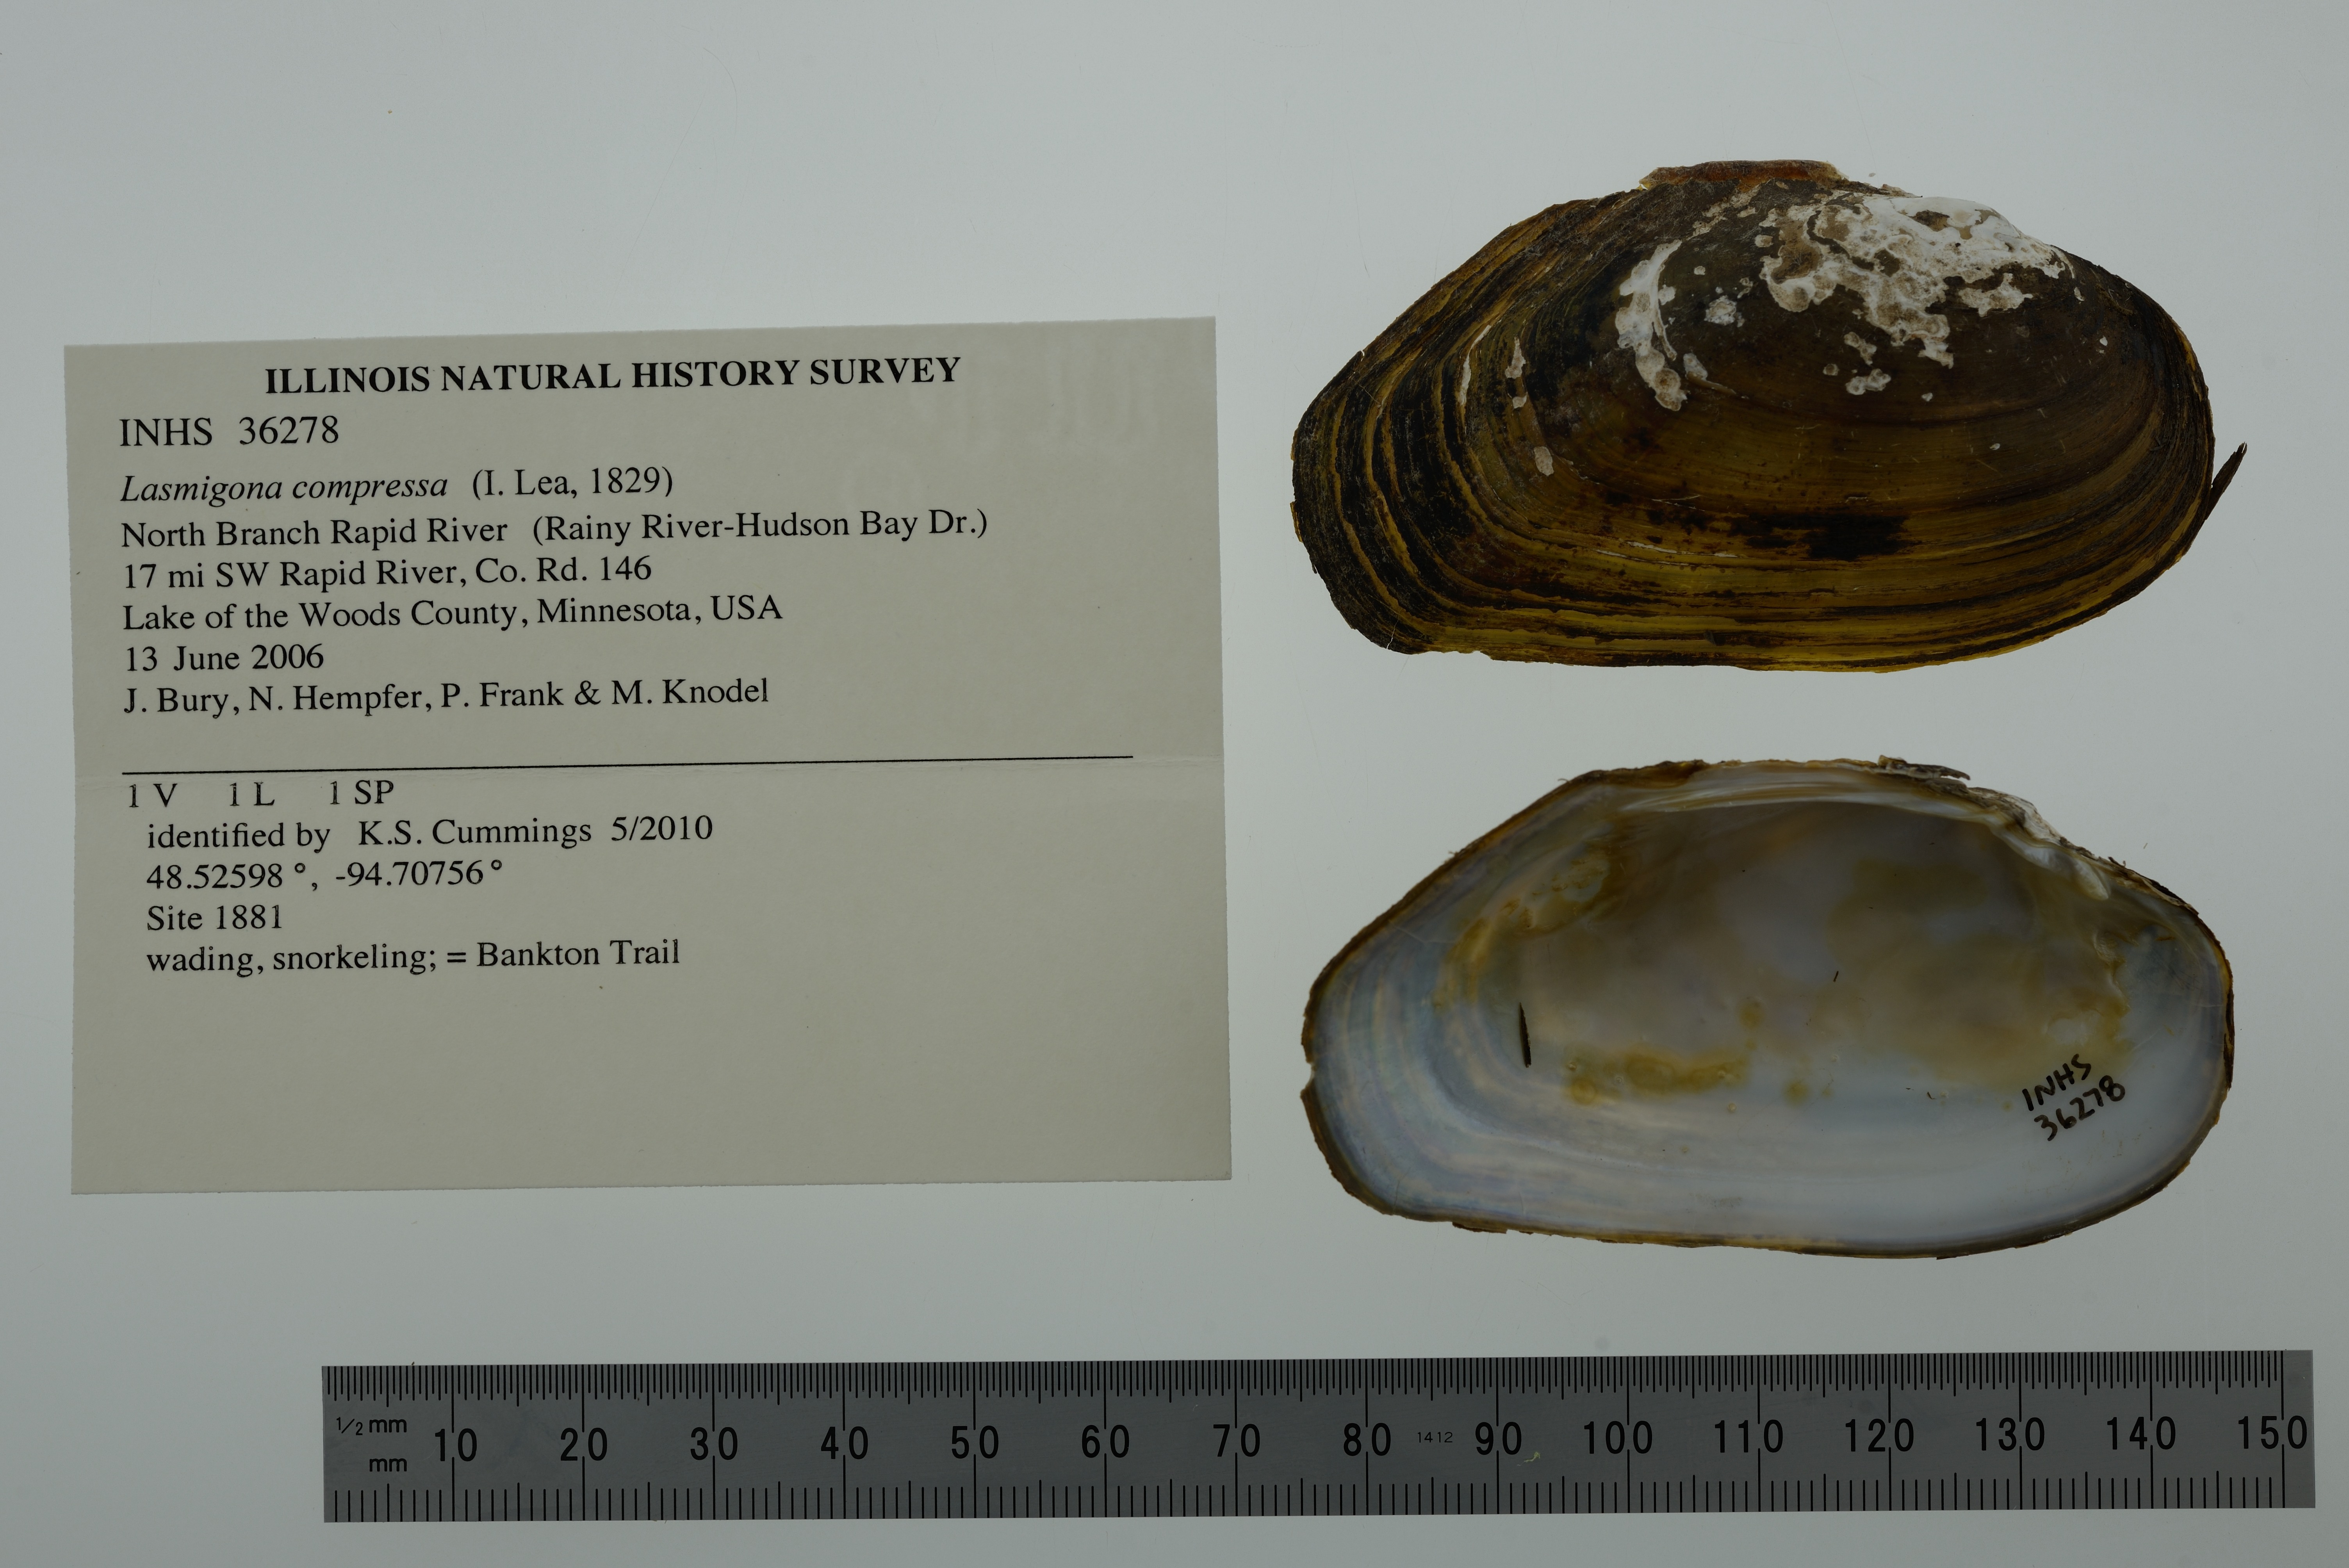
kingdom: Animalia
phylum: Mollusca
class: Bivalvia
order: Unionida
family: Unionidae
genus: Lasmigona
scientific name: Lasmigona compressa
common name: Creek heelsplitter
